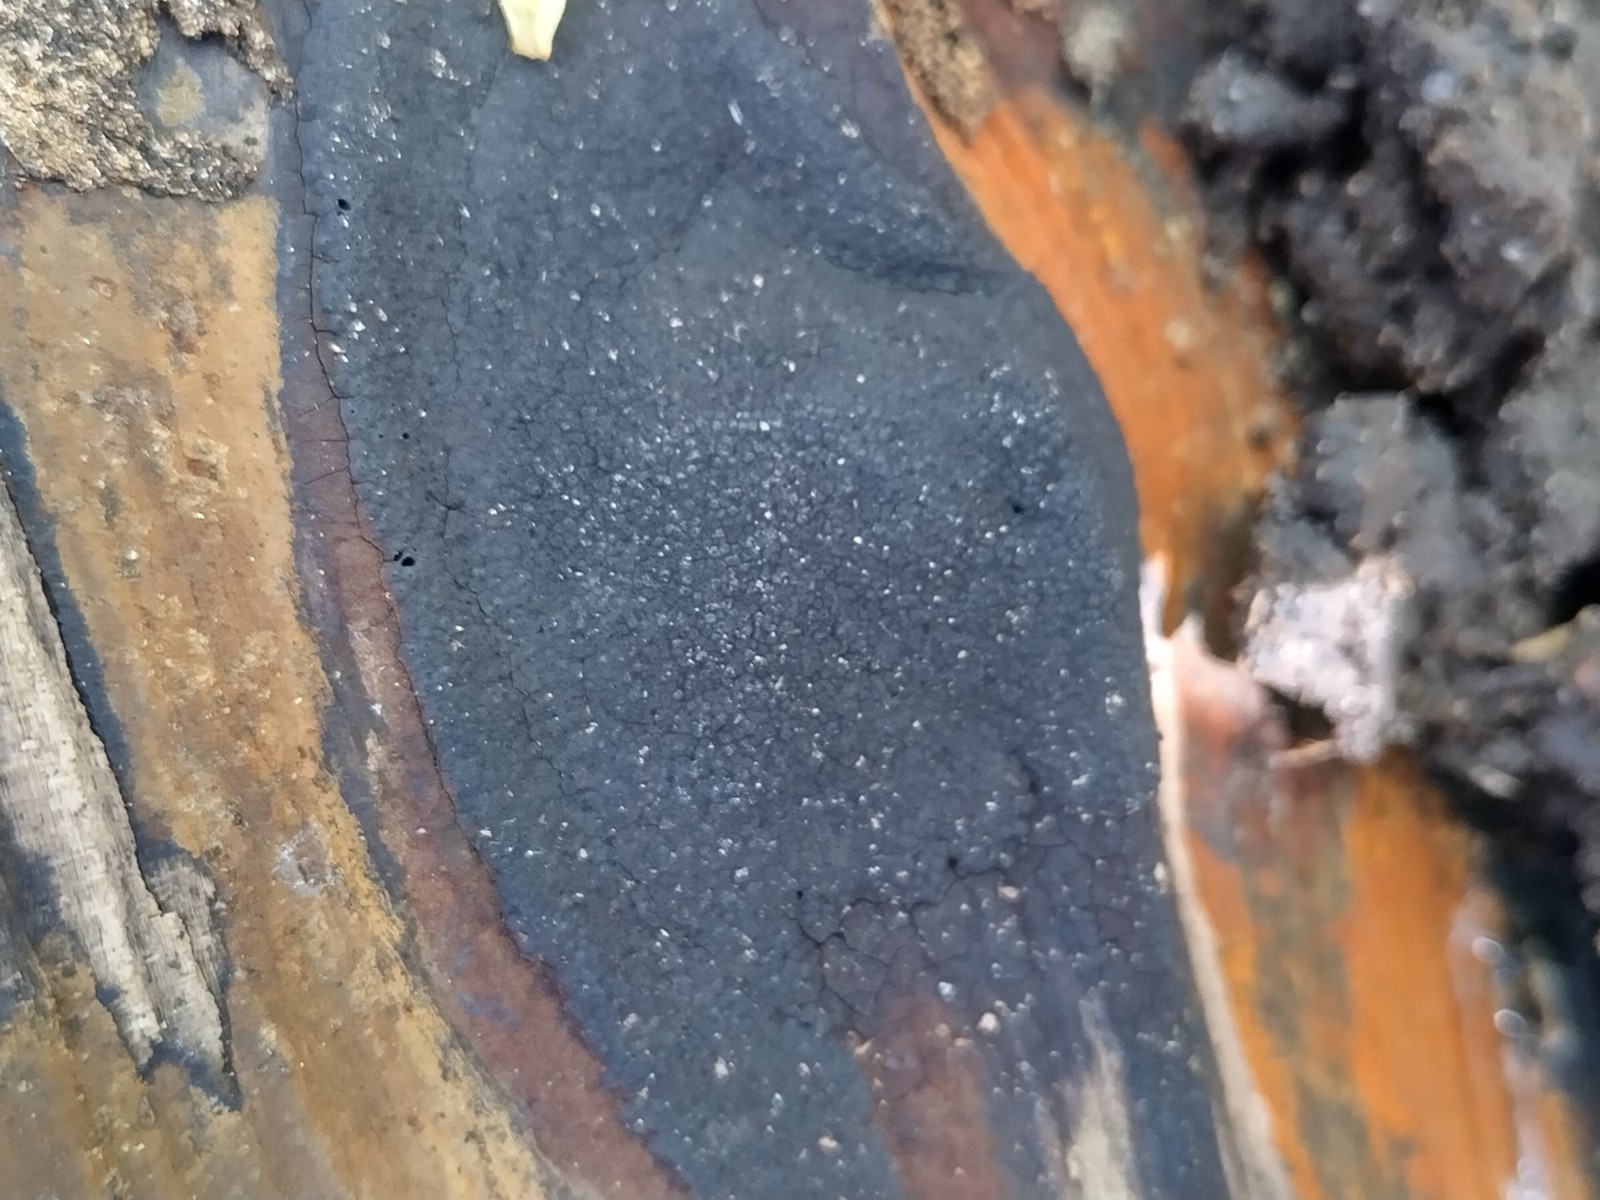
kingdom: Fungi
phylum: Ascomycota
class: Sordariomycetes
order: Xylariales
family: Hypoxylaceae
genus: Hypoxylon
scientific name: Hypoxylon
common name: kulbær
